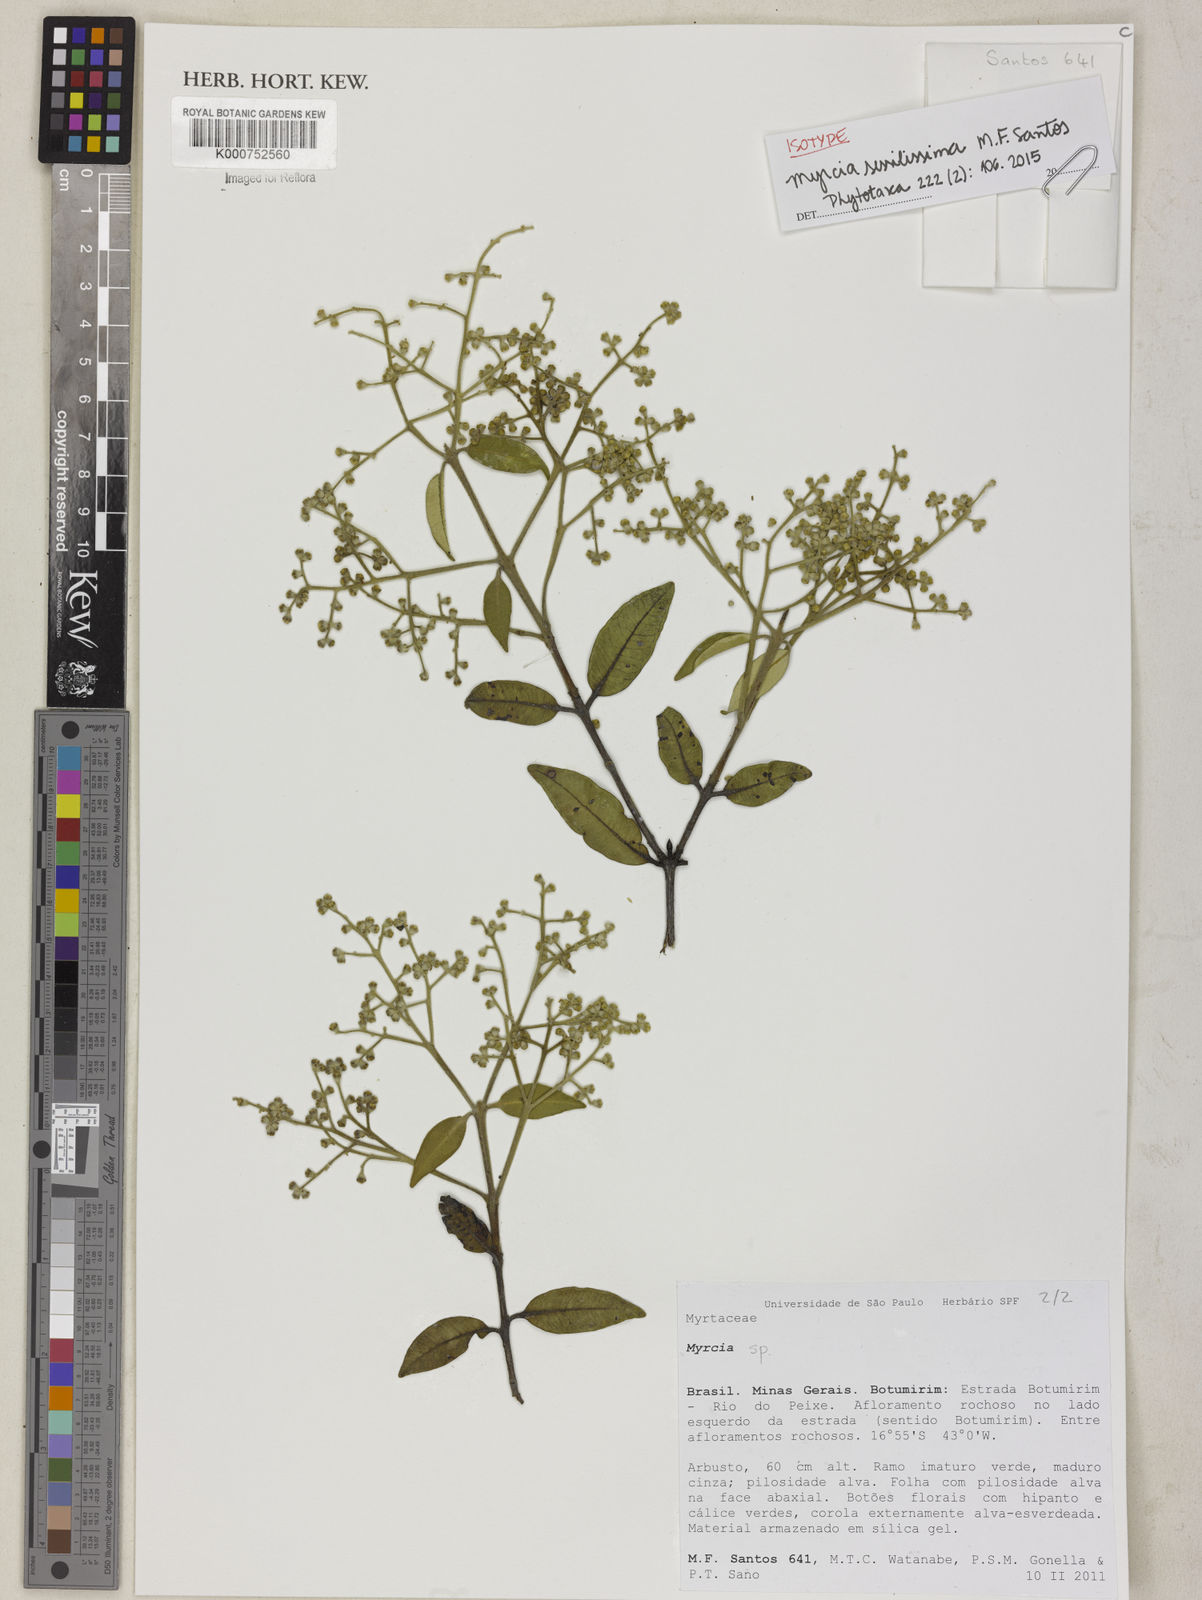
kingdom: Plantae
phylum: Tracheophyta
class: Magnoliopsida
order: Myrtales
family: Myrtaceae
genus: Myrcia
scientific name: Myrcia sessilissima
